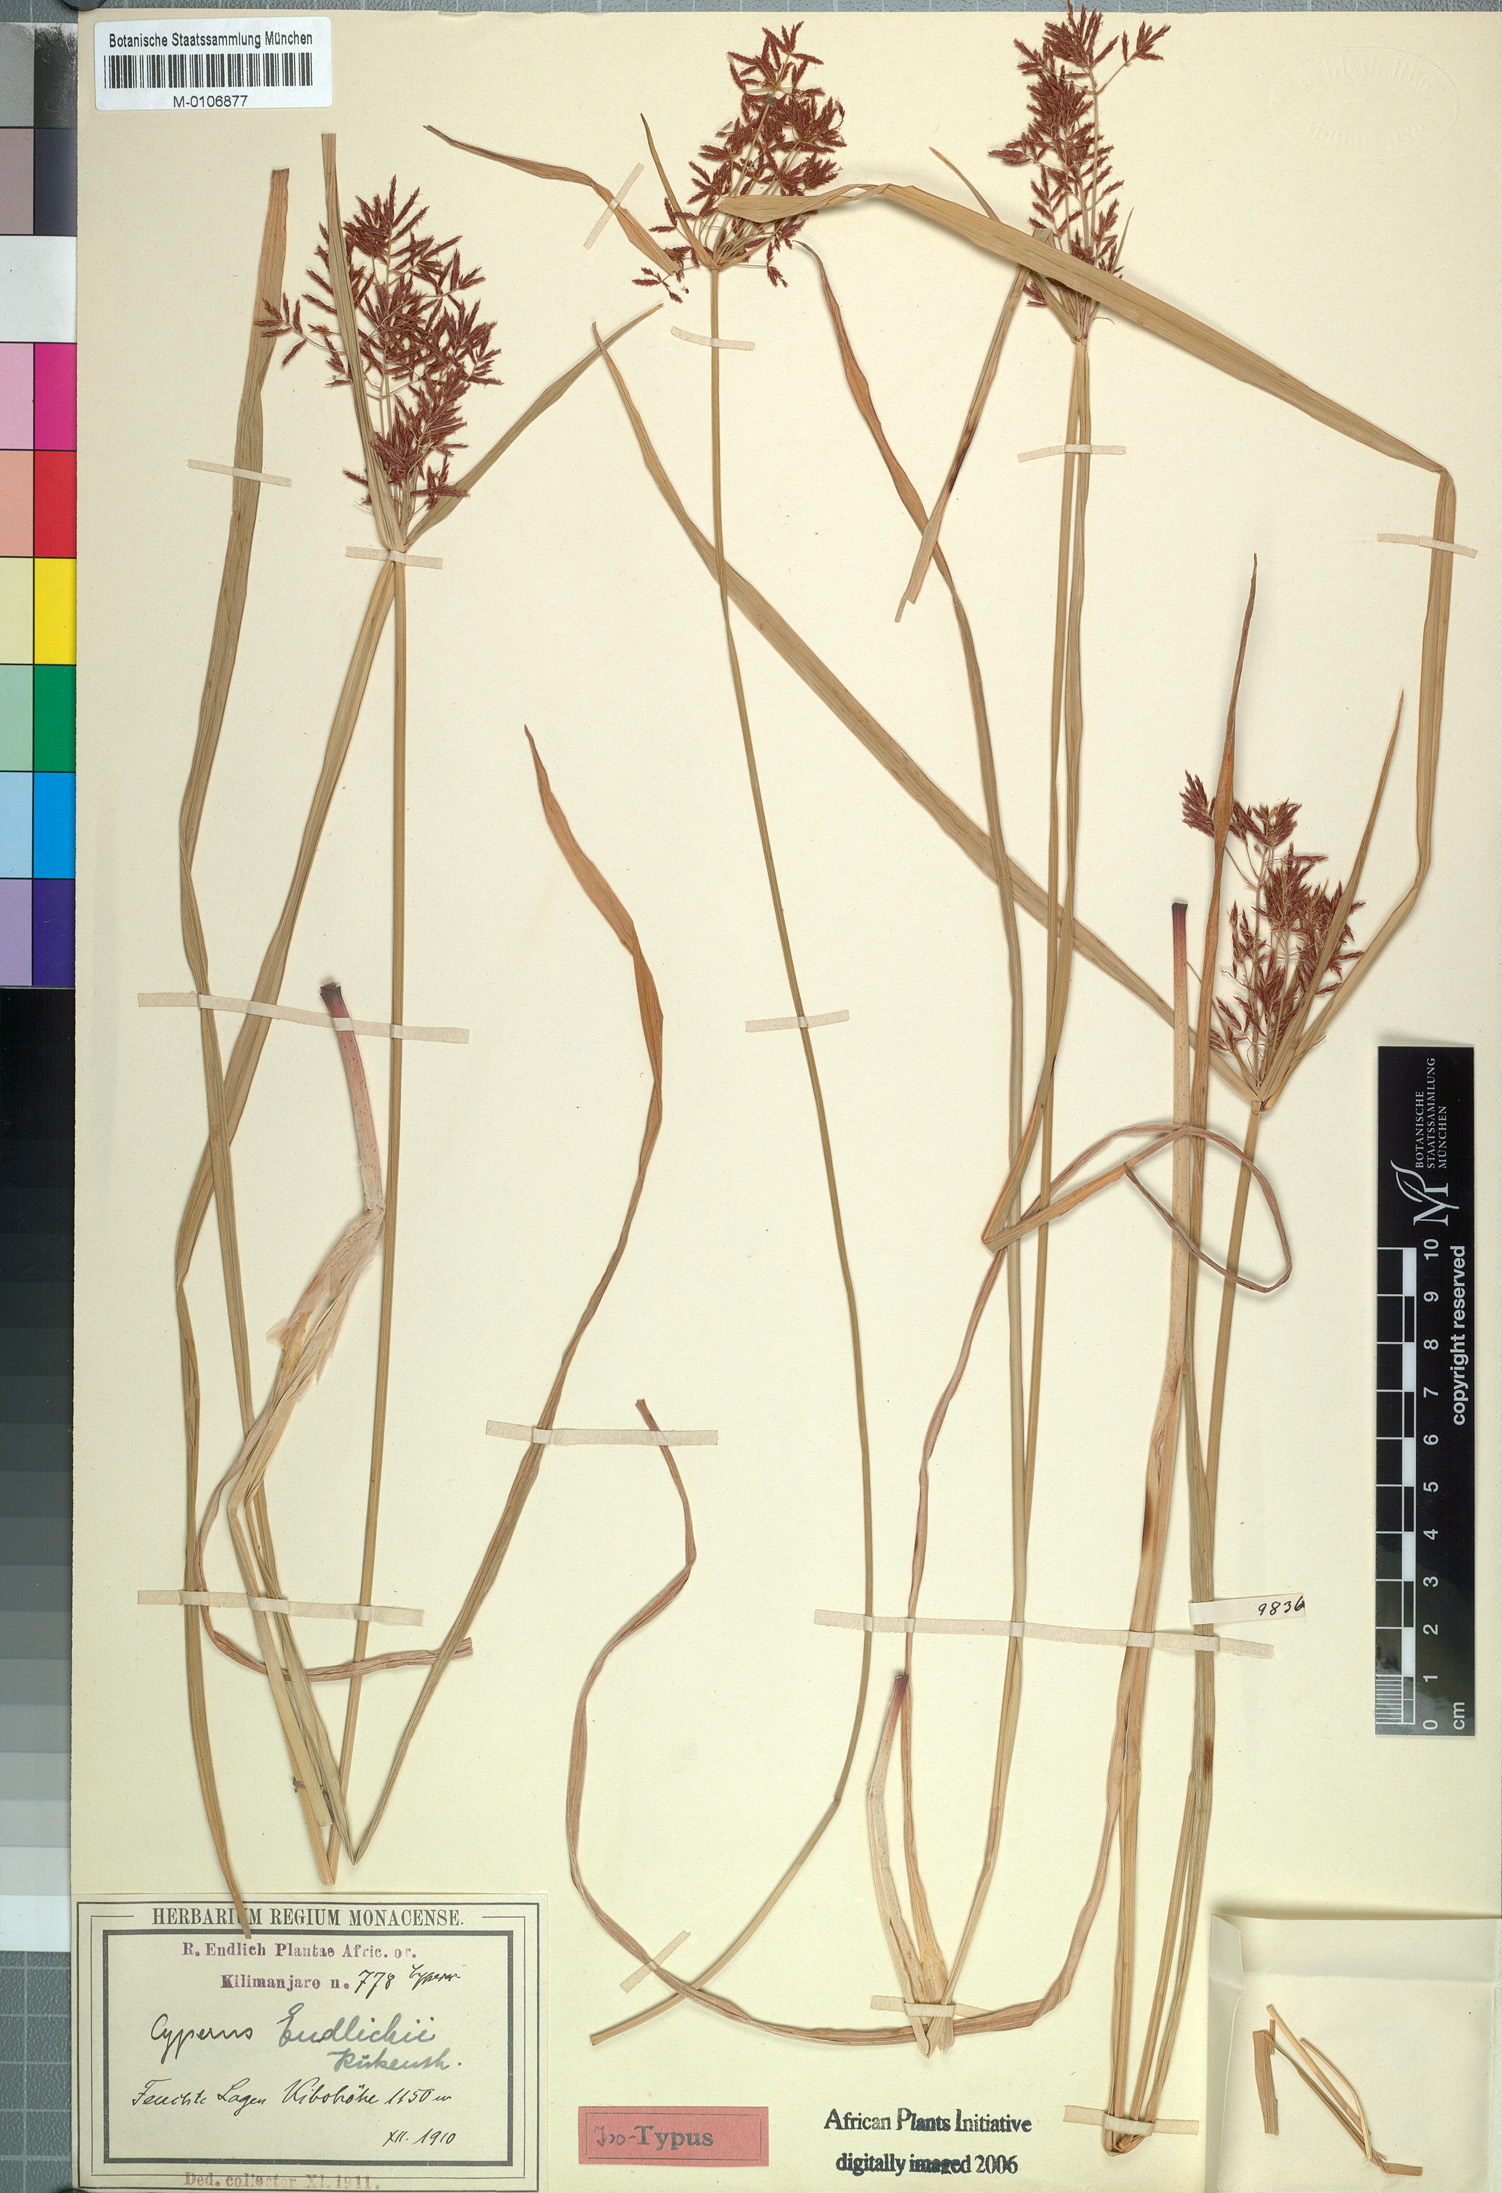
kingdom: Plantae
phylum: Tracheophyta
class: Liliopsida
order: Poales
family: Cyperaceae
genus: Cyperus
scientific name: Cyperus endlichii
